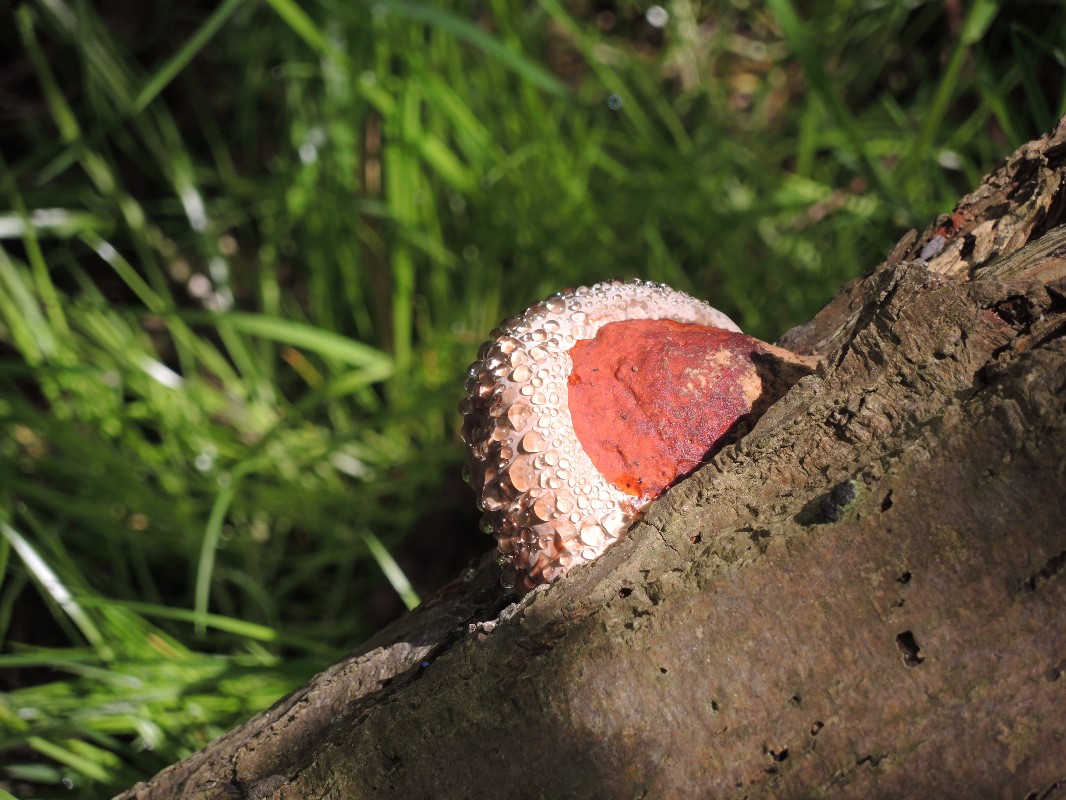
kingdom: Fungi
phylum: Basidiomycota
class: Agaricomycetes
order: Polyporales
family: Fomitopsidaceae
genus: Fomitopsis
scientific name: Fomitopsis pinicola
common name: randbæltet hovporesvamp
